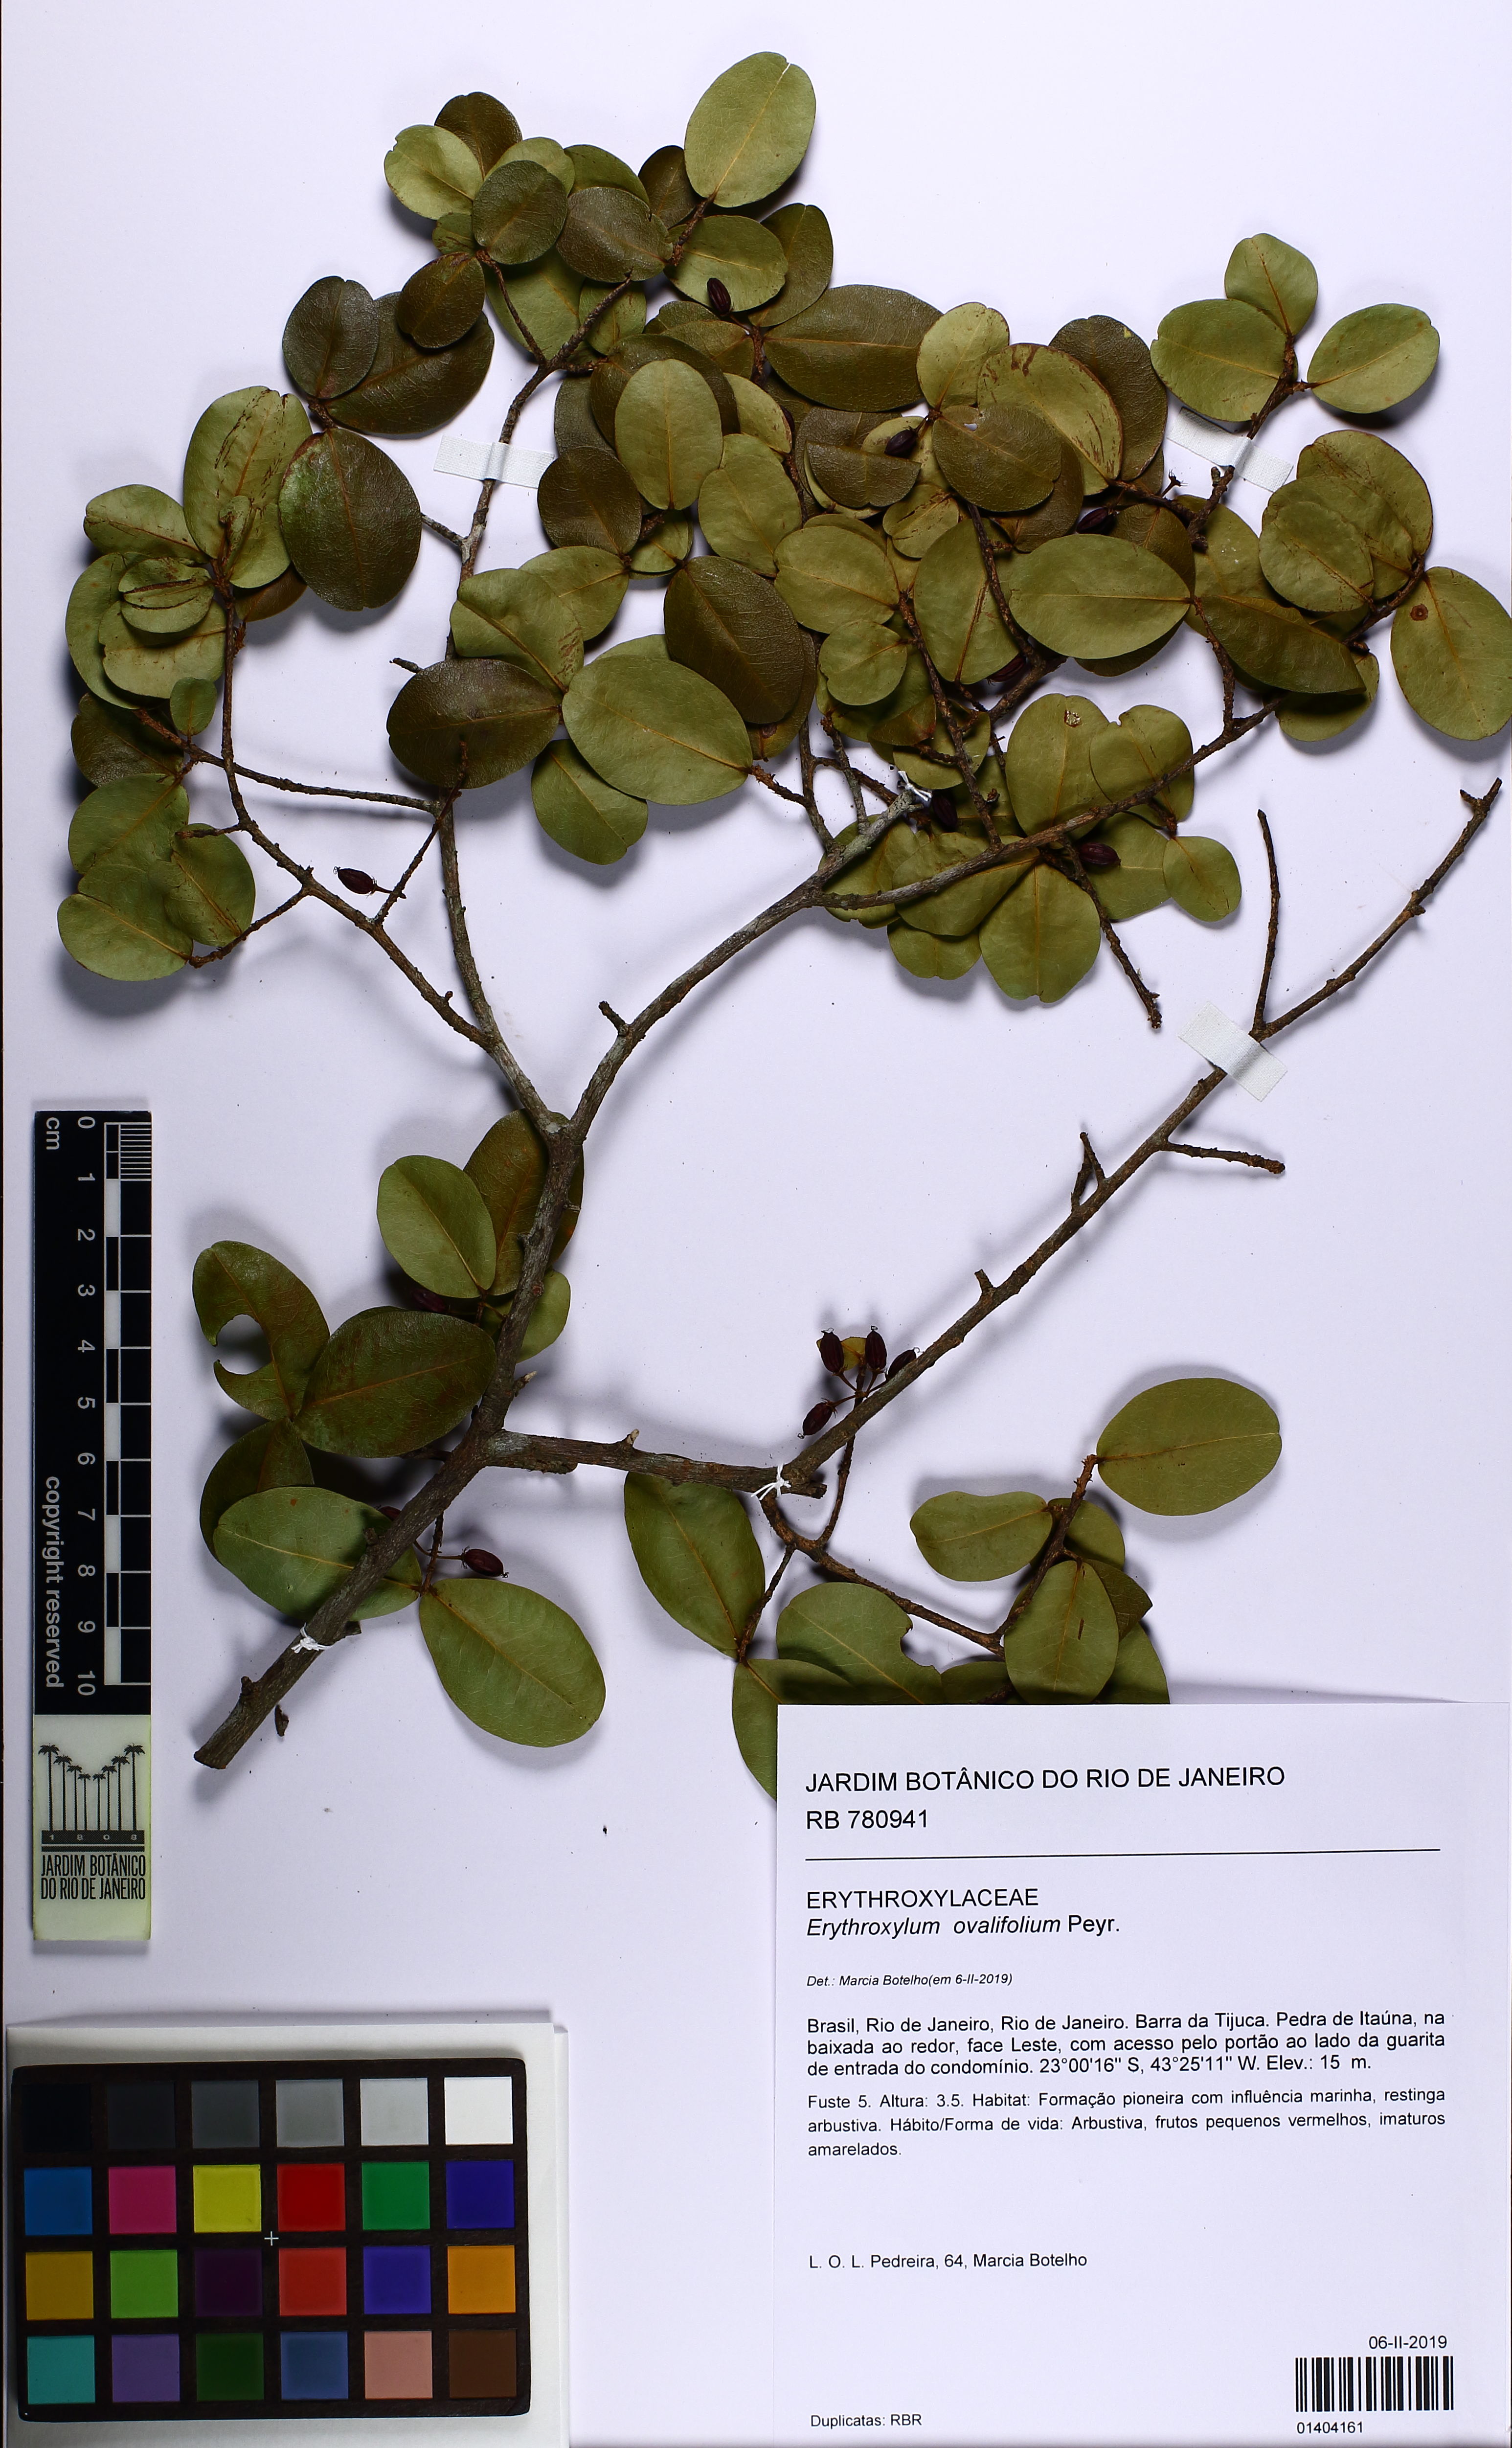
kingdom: Plantae
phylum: Tracheophyta
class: Magnoliopsida
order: Malpighiales
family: Erythroxylaceae
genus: Erythroxylum
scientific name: Erythroxylum ovalifolium
